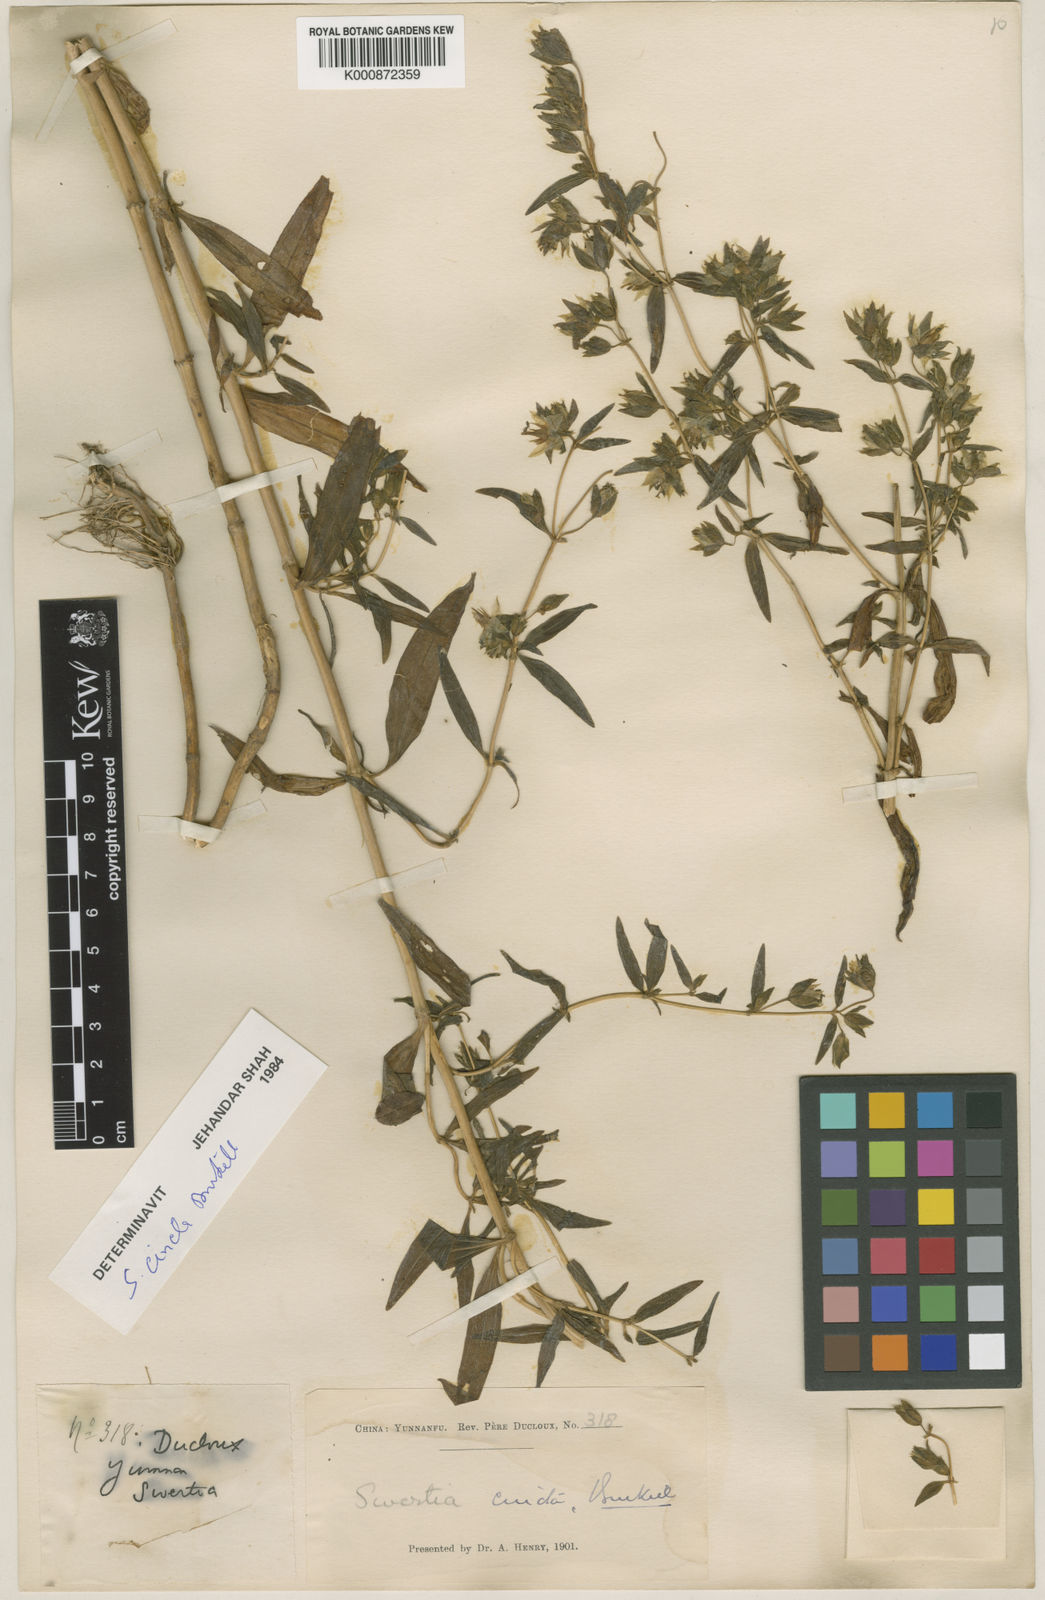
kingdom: Plantae
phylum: Tracheophyta
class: Magnoliopsida
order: Gentianales
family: Gentianaceae
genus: Swertia
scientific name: Swertia cincta
